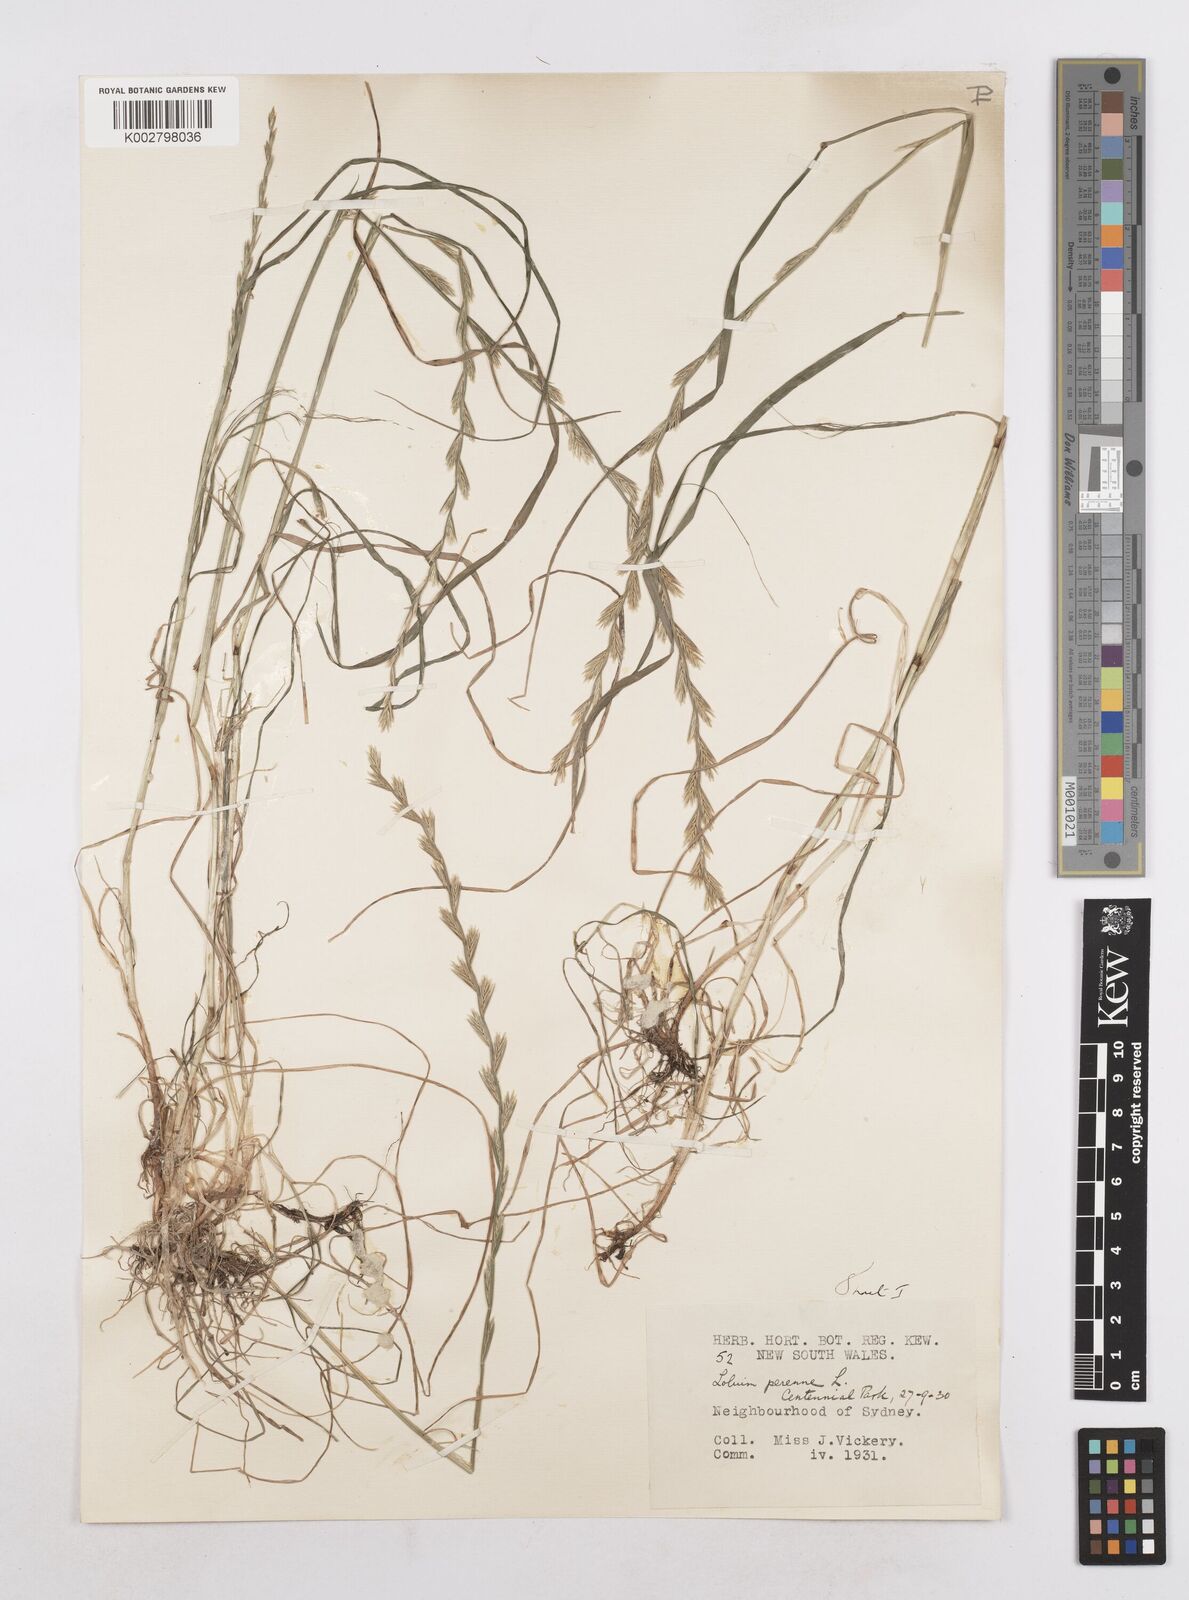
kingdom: Plantae
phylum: Tracheophyta
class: Liliopsida
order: Poales
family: Poaceae
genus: Lolium
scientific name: Lolium perenne
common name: Perennial ryegrass
